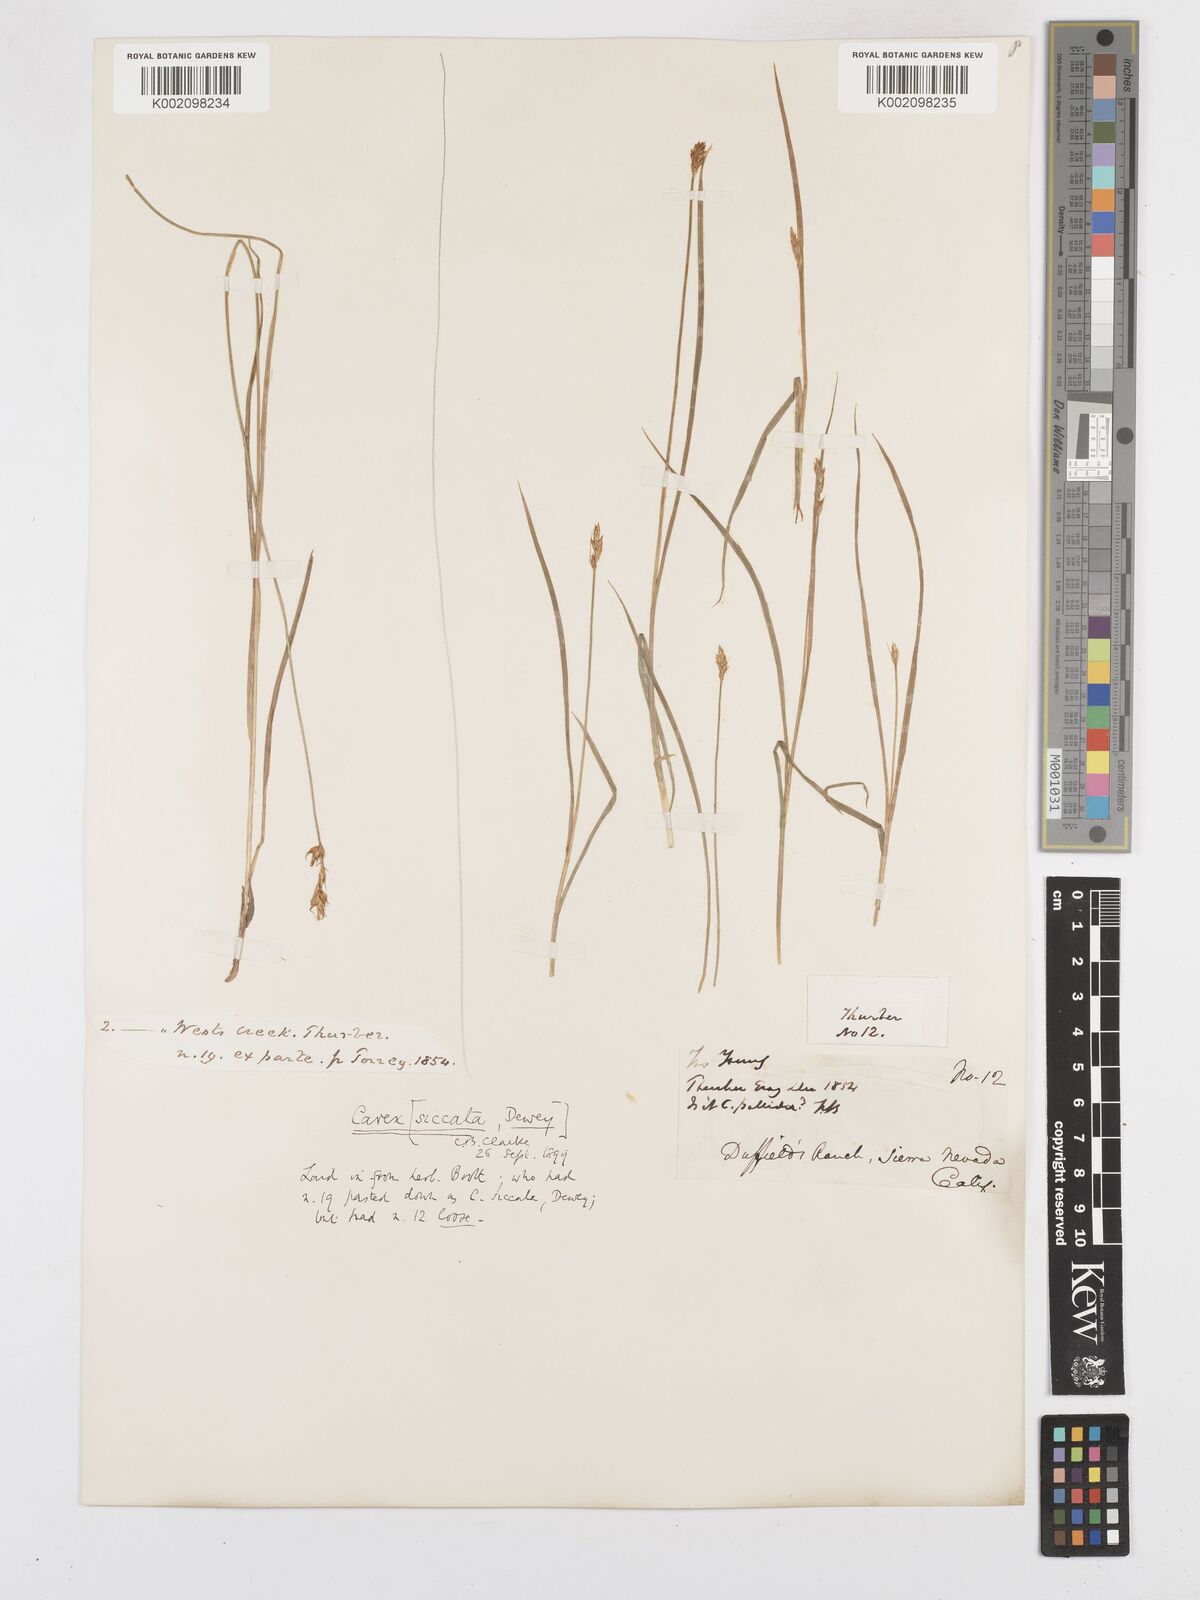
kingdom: Plantae
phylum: Tracheophyta
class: Liliopsida
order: Poales
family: Cyperaceae
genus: Carex
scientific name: Carex foenea
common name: Bronze sedge
